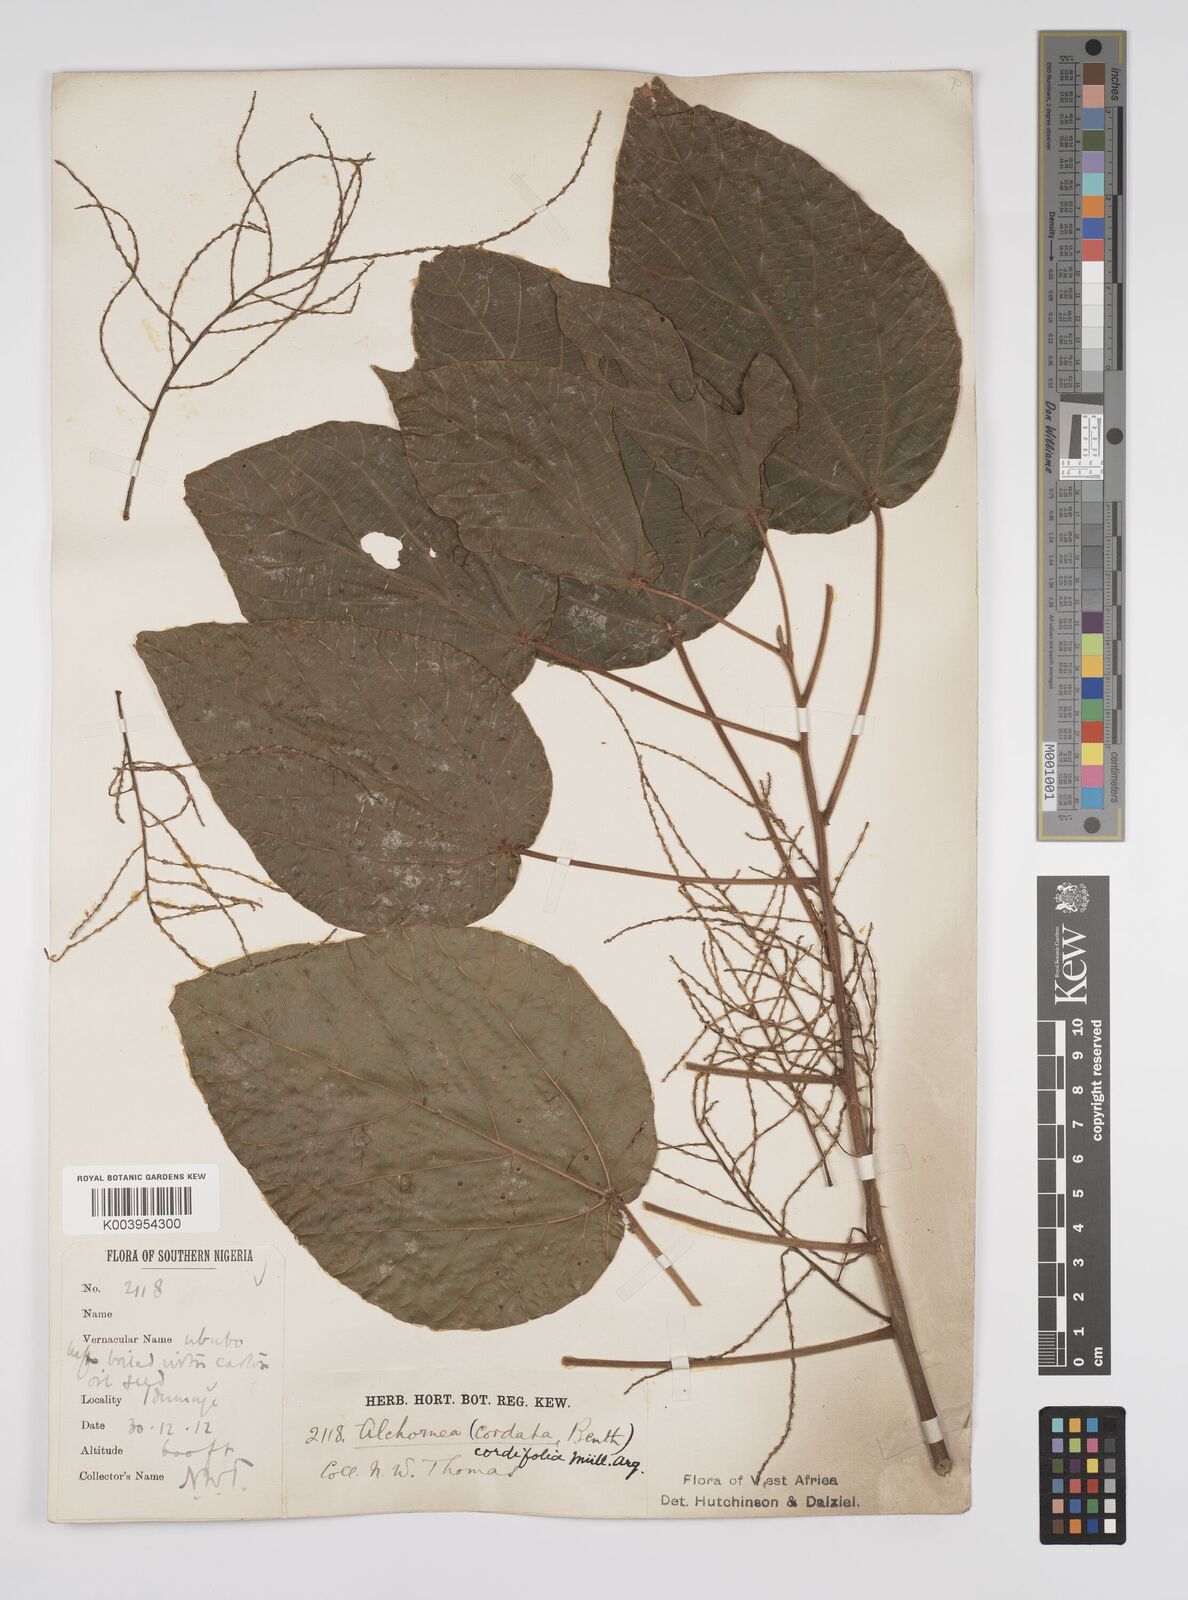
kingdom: Plantae
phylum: Tracheophyta
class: Magnoliopsida
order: Malpighiales
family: Euphorbiaceae
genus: Alchornea
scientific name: Alchornea cordifolia
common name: Christmasbush
